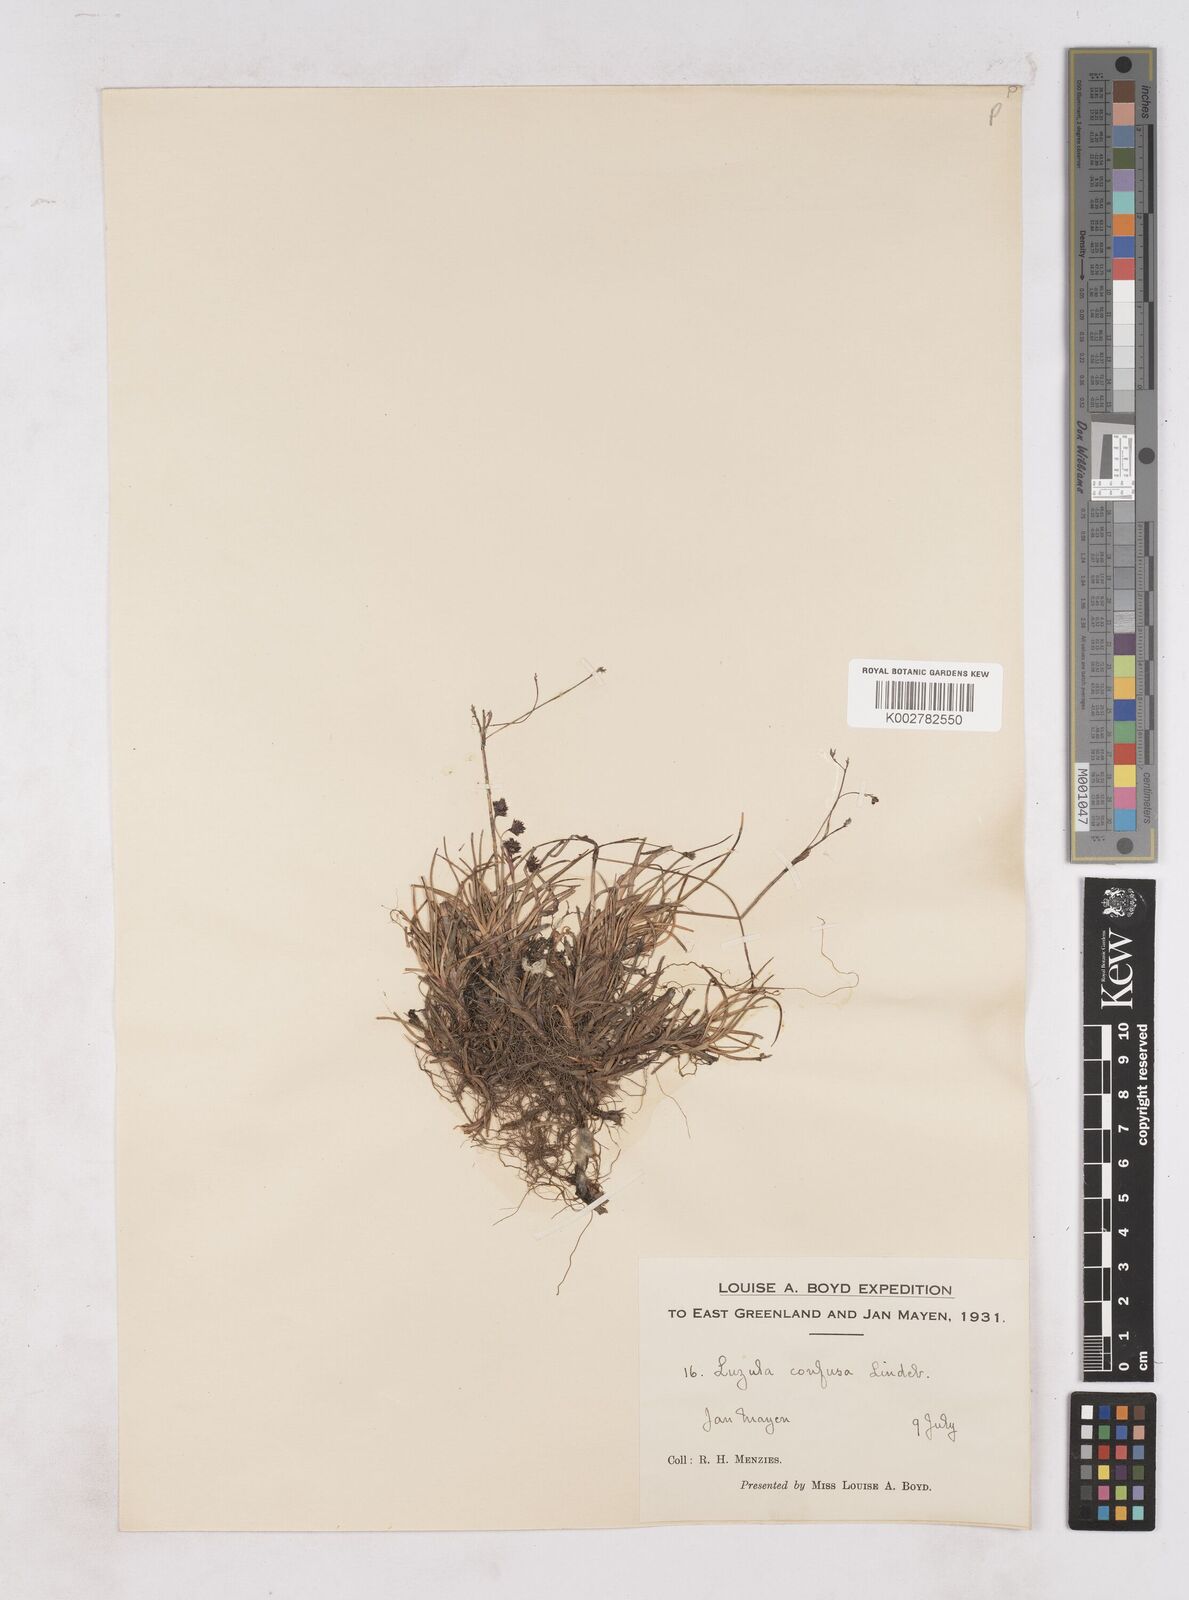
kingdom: Plantae
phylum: Tracheophyta
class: Liliopsida
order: Poales
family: Juncaceae
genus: Luzula
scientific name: Luzula confusa
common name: Northern wood rush
